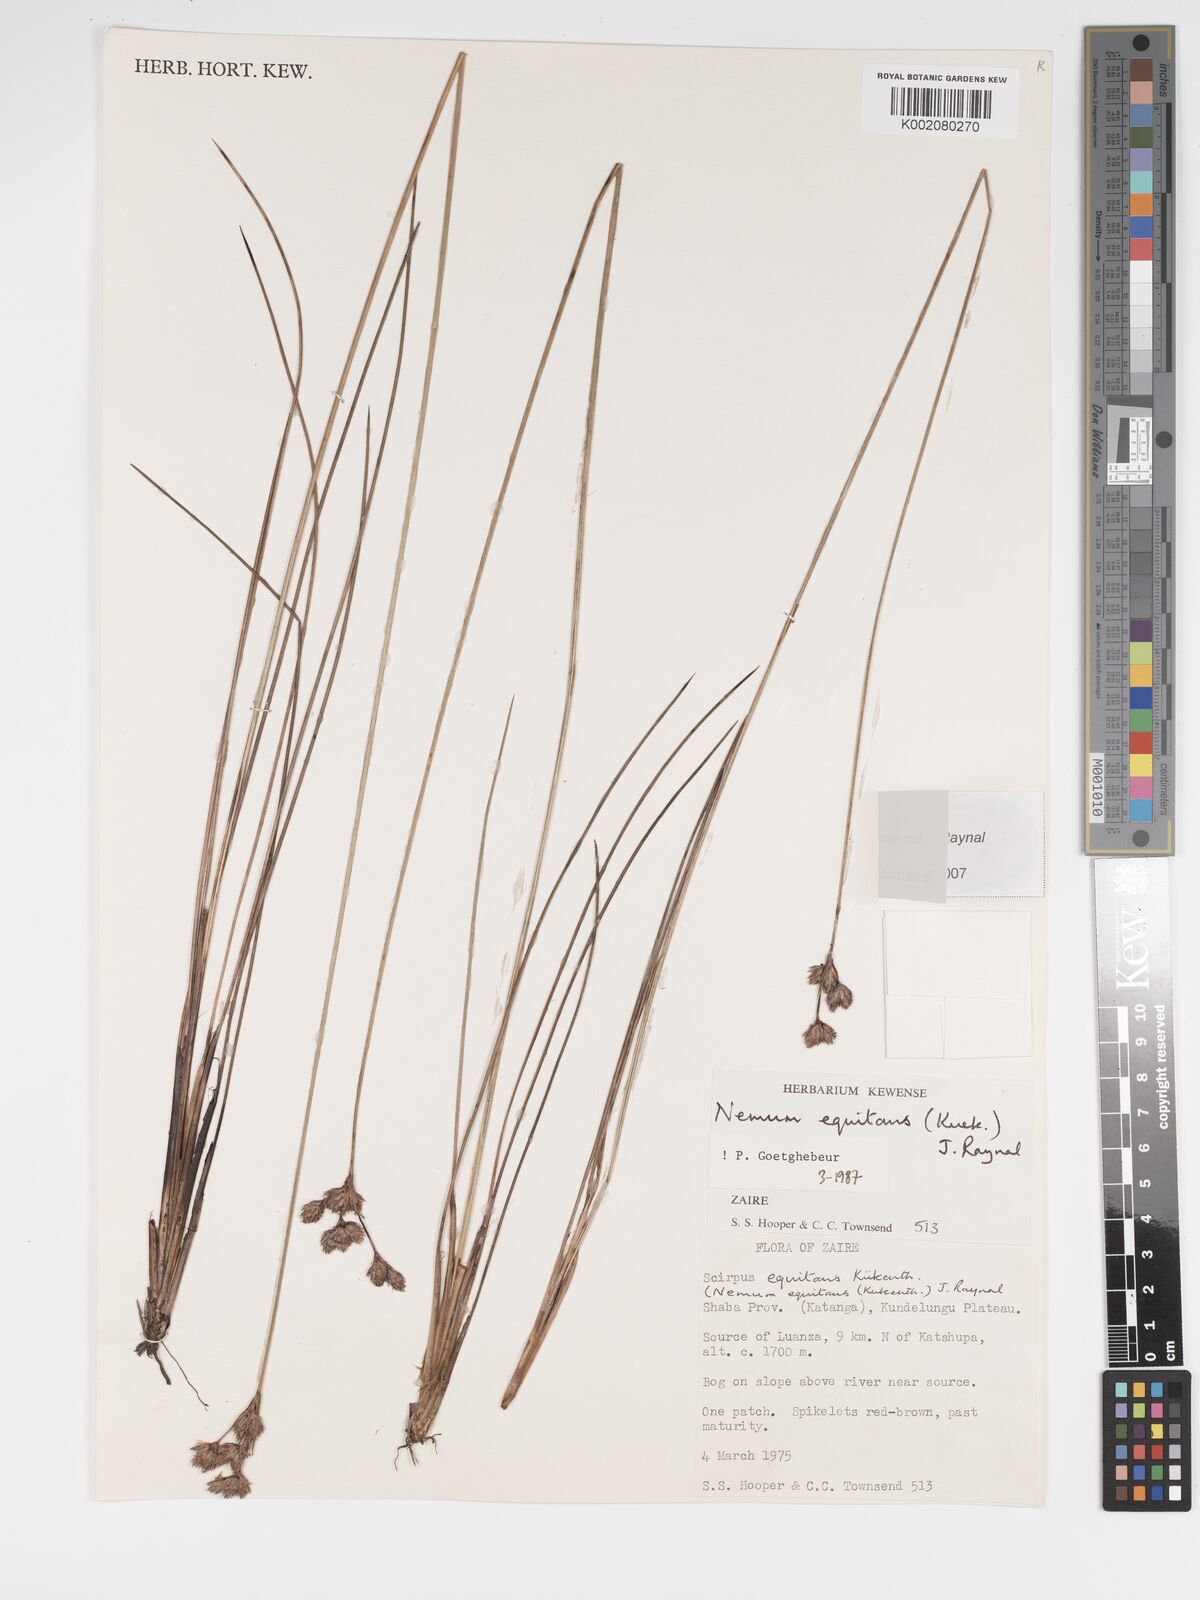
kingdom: Plantae
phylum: Tracheophyta
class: Liliopsida
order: Poales
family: Cyperaceae
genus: Bulbostylis
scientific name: Bulbostylis equitans
